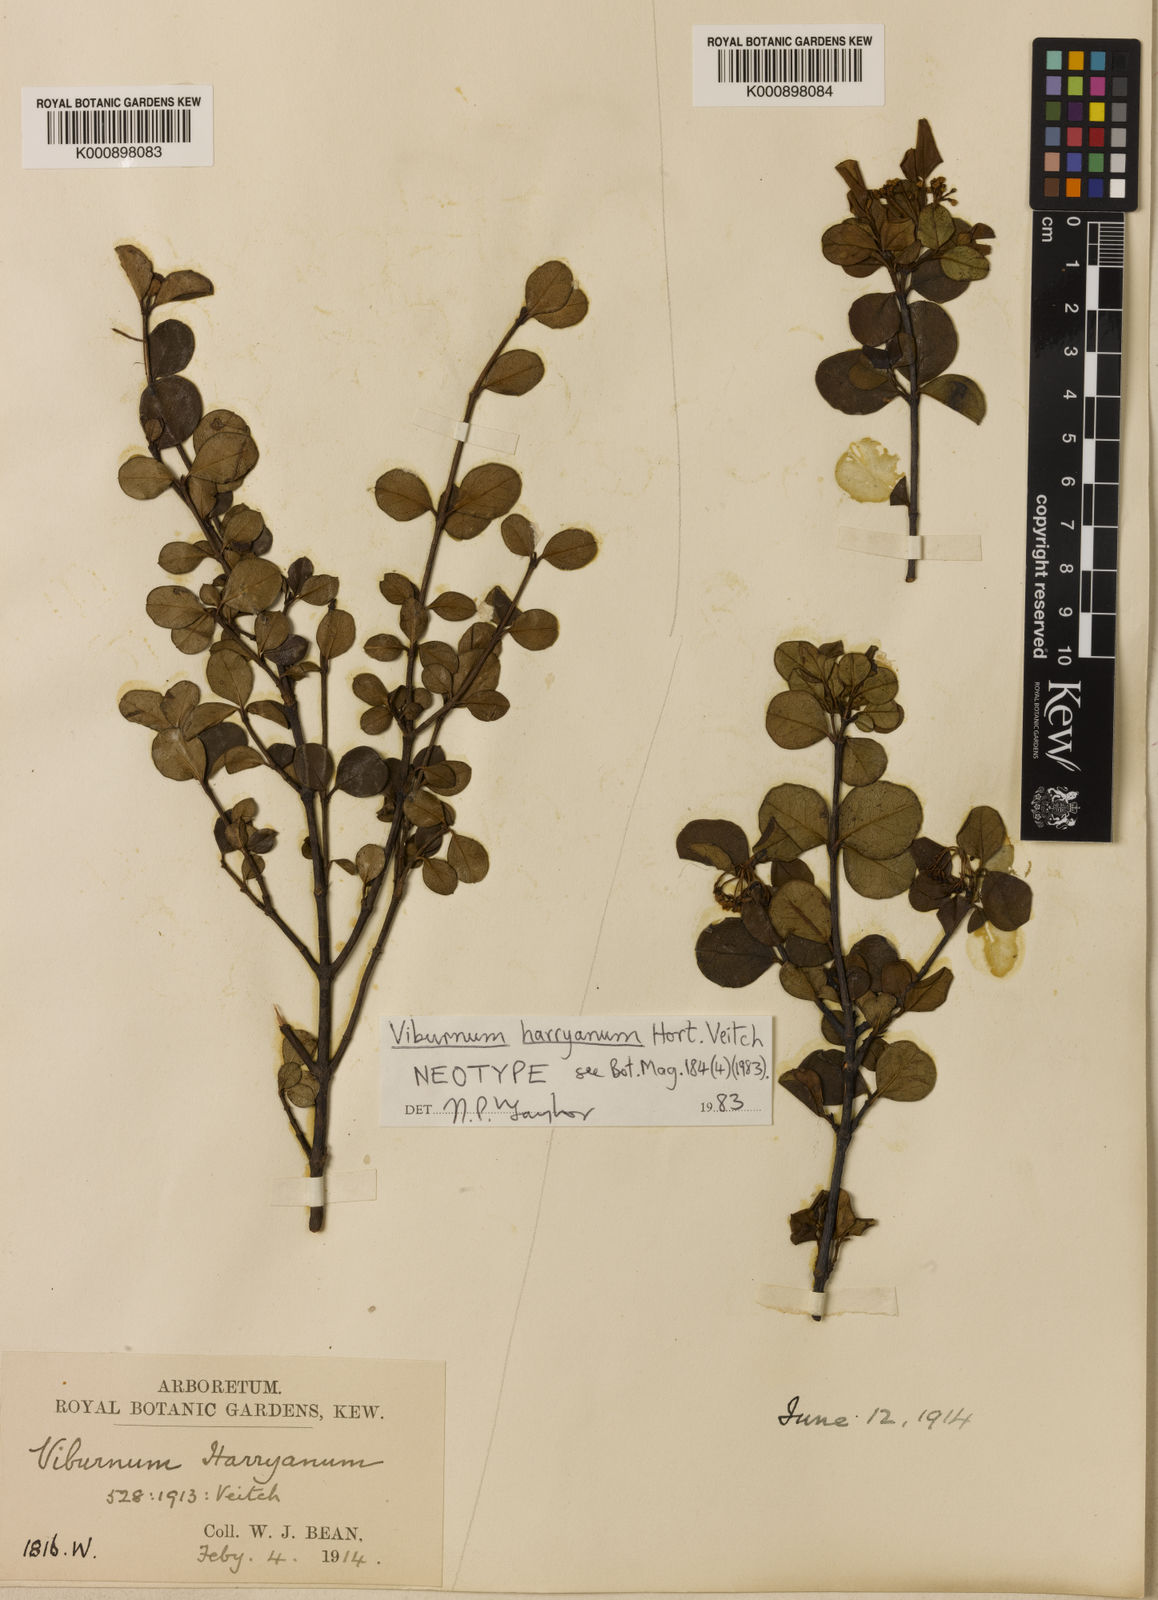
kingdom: Plantae
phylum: Tracheophyta
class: Magnoliopsida
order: Dipsacales
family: Viburnaceae
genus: Viburnum
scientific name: Viburnum atrocyaneum
